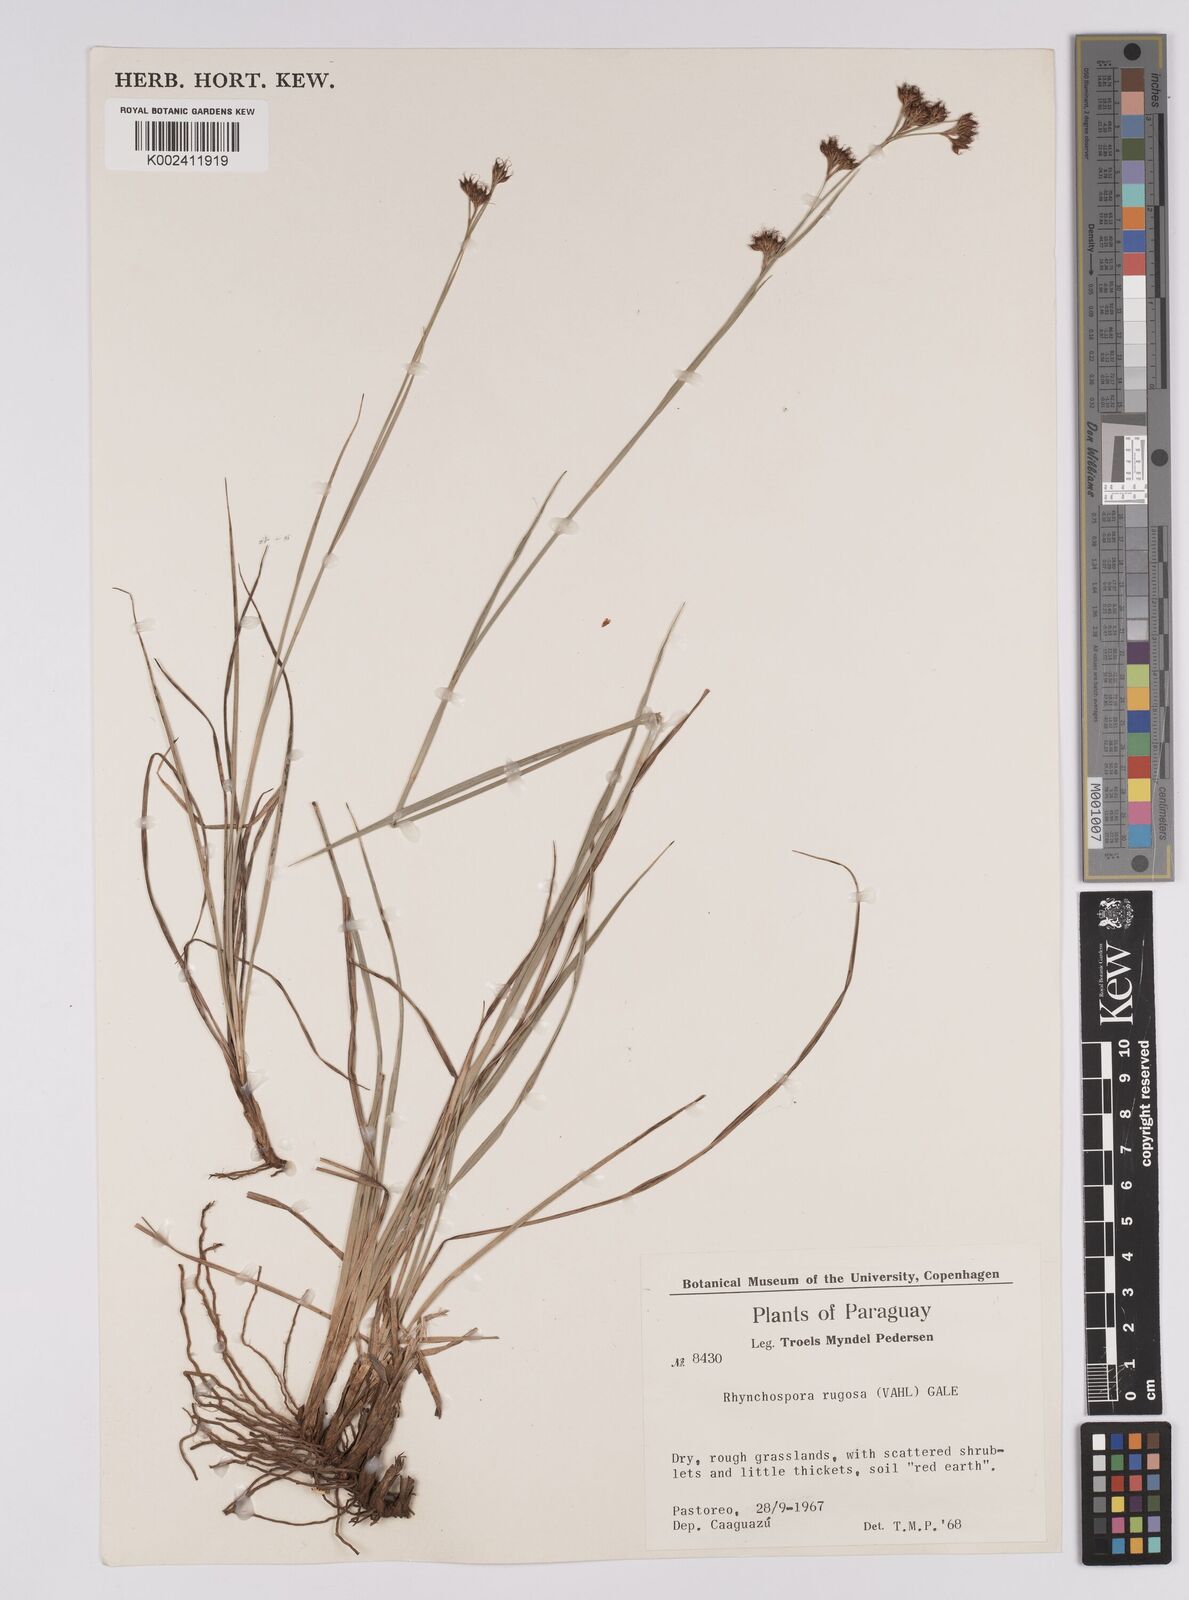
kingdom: Plantae
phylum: Tracheophyta
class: Liliopsida
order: Poales
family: Cyperaceae
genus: Rhynchospora
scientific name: Rhynchospora rugosa
